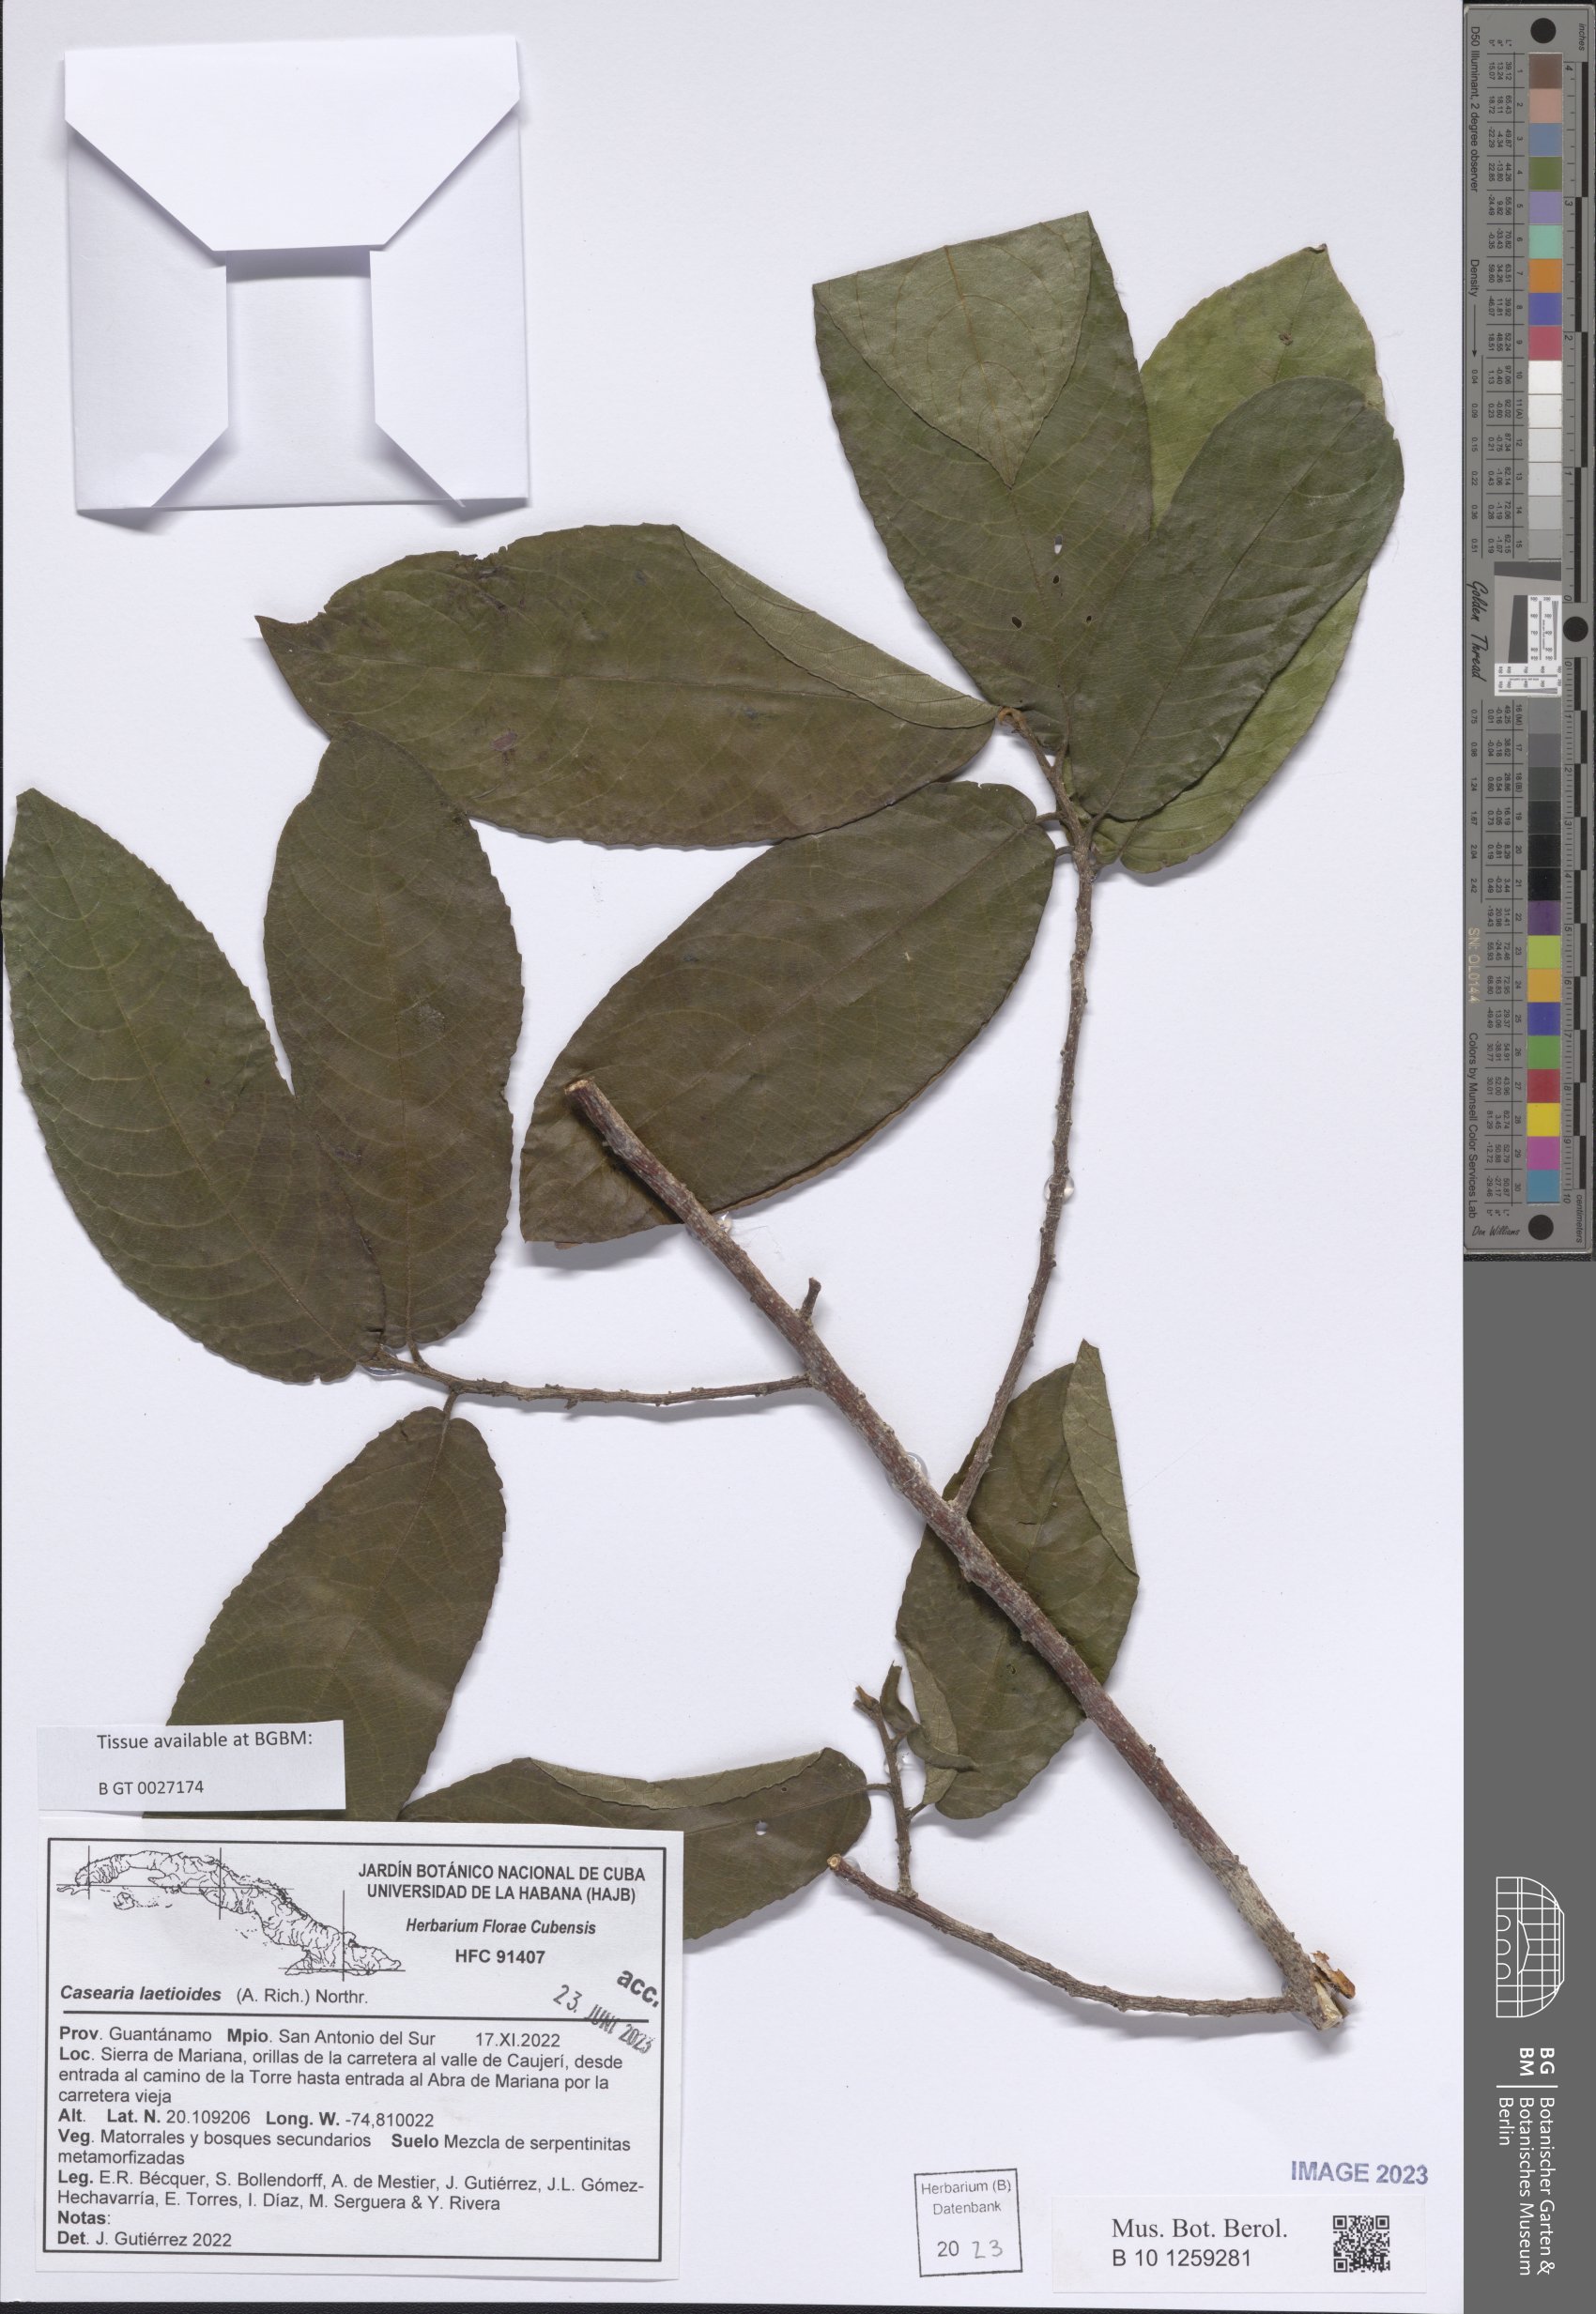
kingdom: Plantae
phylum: Tracheophyta
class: Magnoliopsida
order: Malpighiales
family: Salicaceae
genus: Casearia
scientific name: Casearia icosandra
